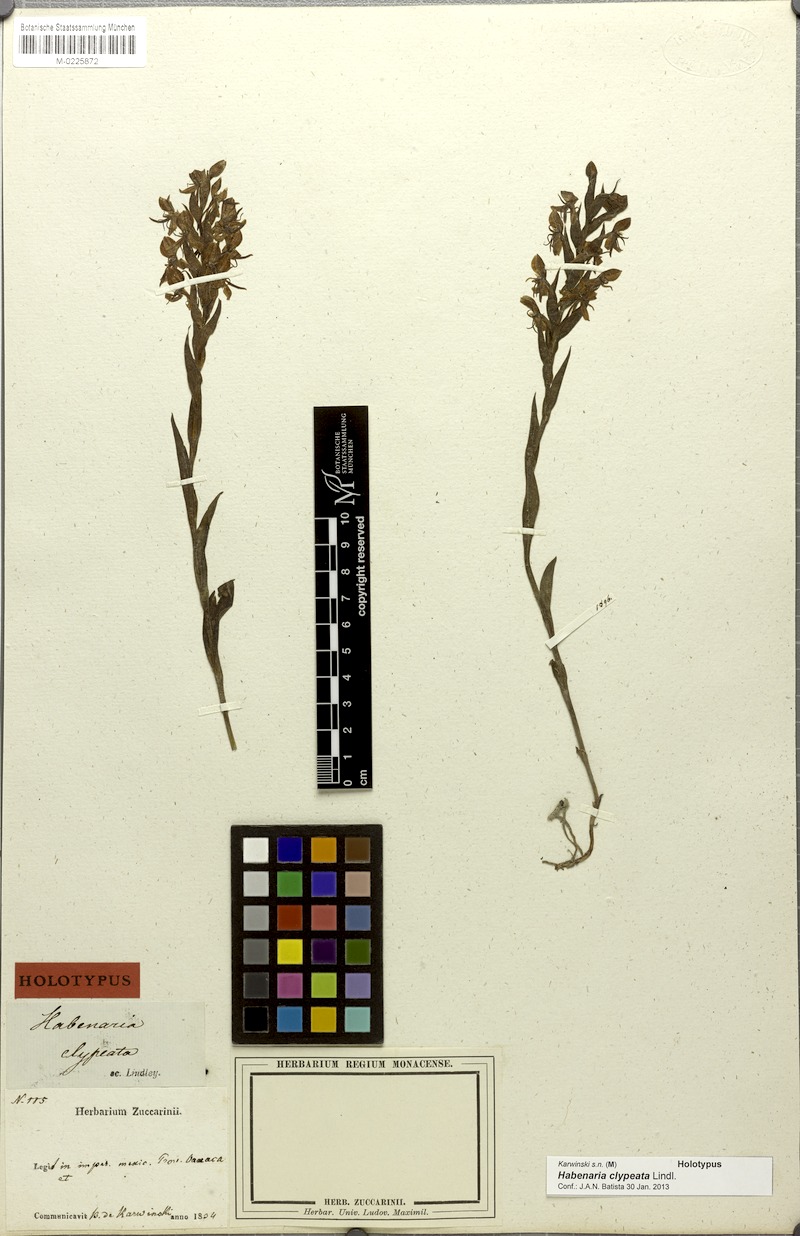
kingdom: Plantae
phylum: Tracheophyta
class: Liliopsida
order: Asparagales
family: Orchidaceae
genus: Habenaria
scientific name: Habenaria clypeata
